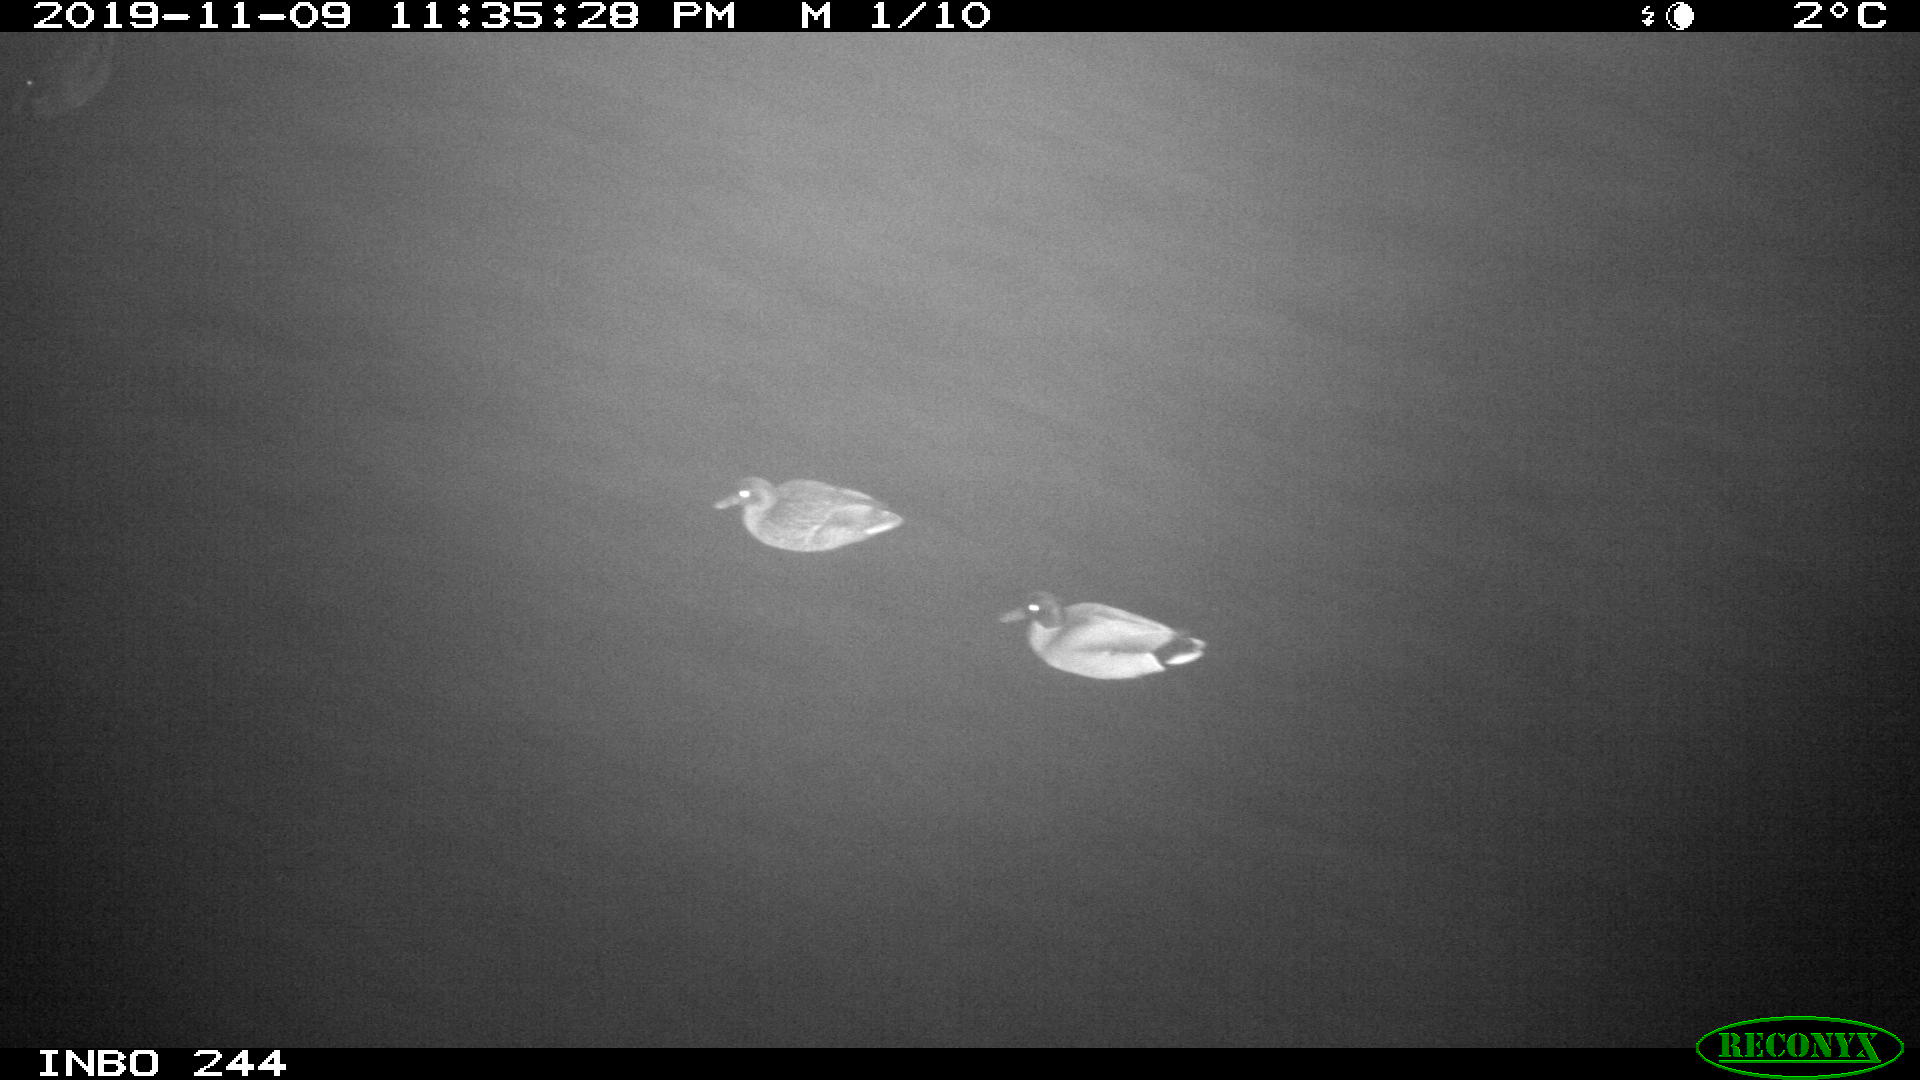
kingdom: Animalia
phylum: Chordata
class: Aves
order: Anseriformes
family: Anatidae
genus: Anas
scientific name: Anas platyrhynchos
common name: Mallard
